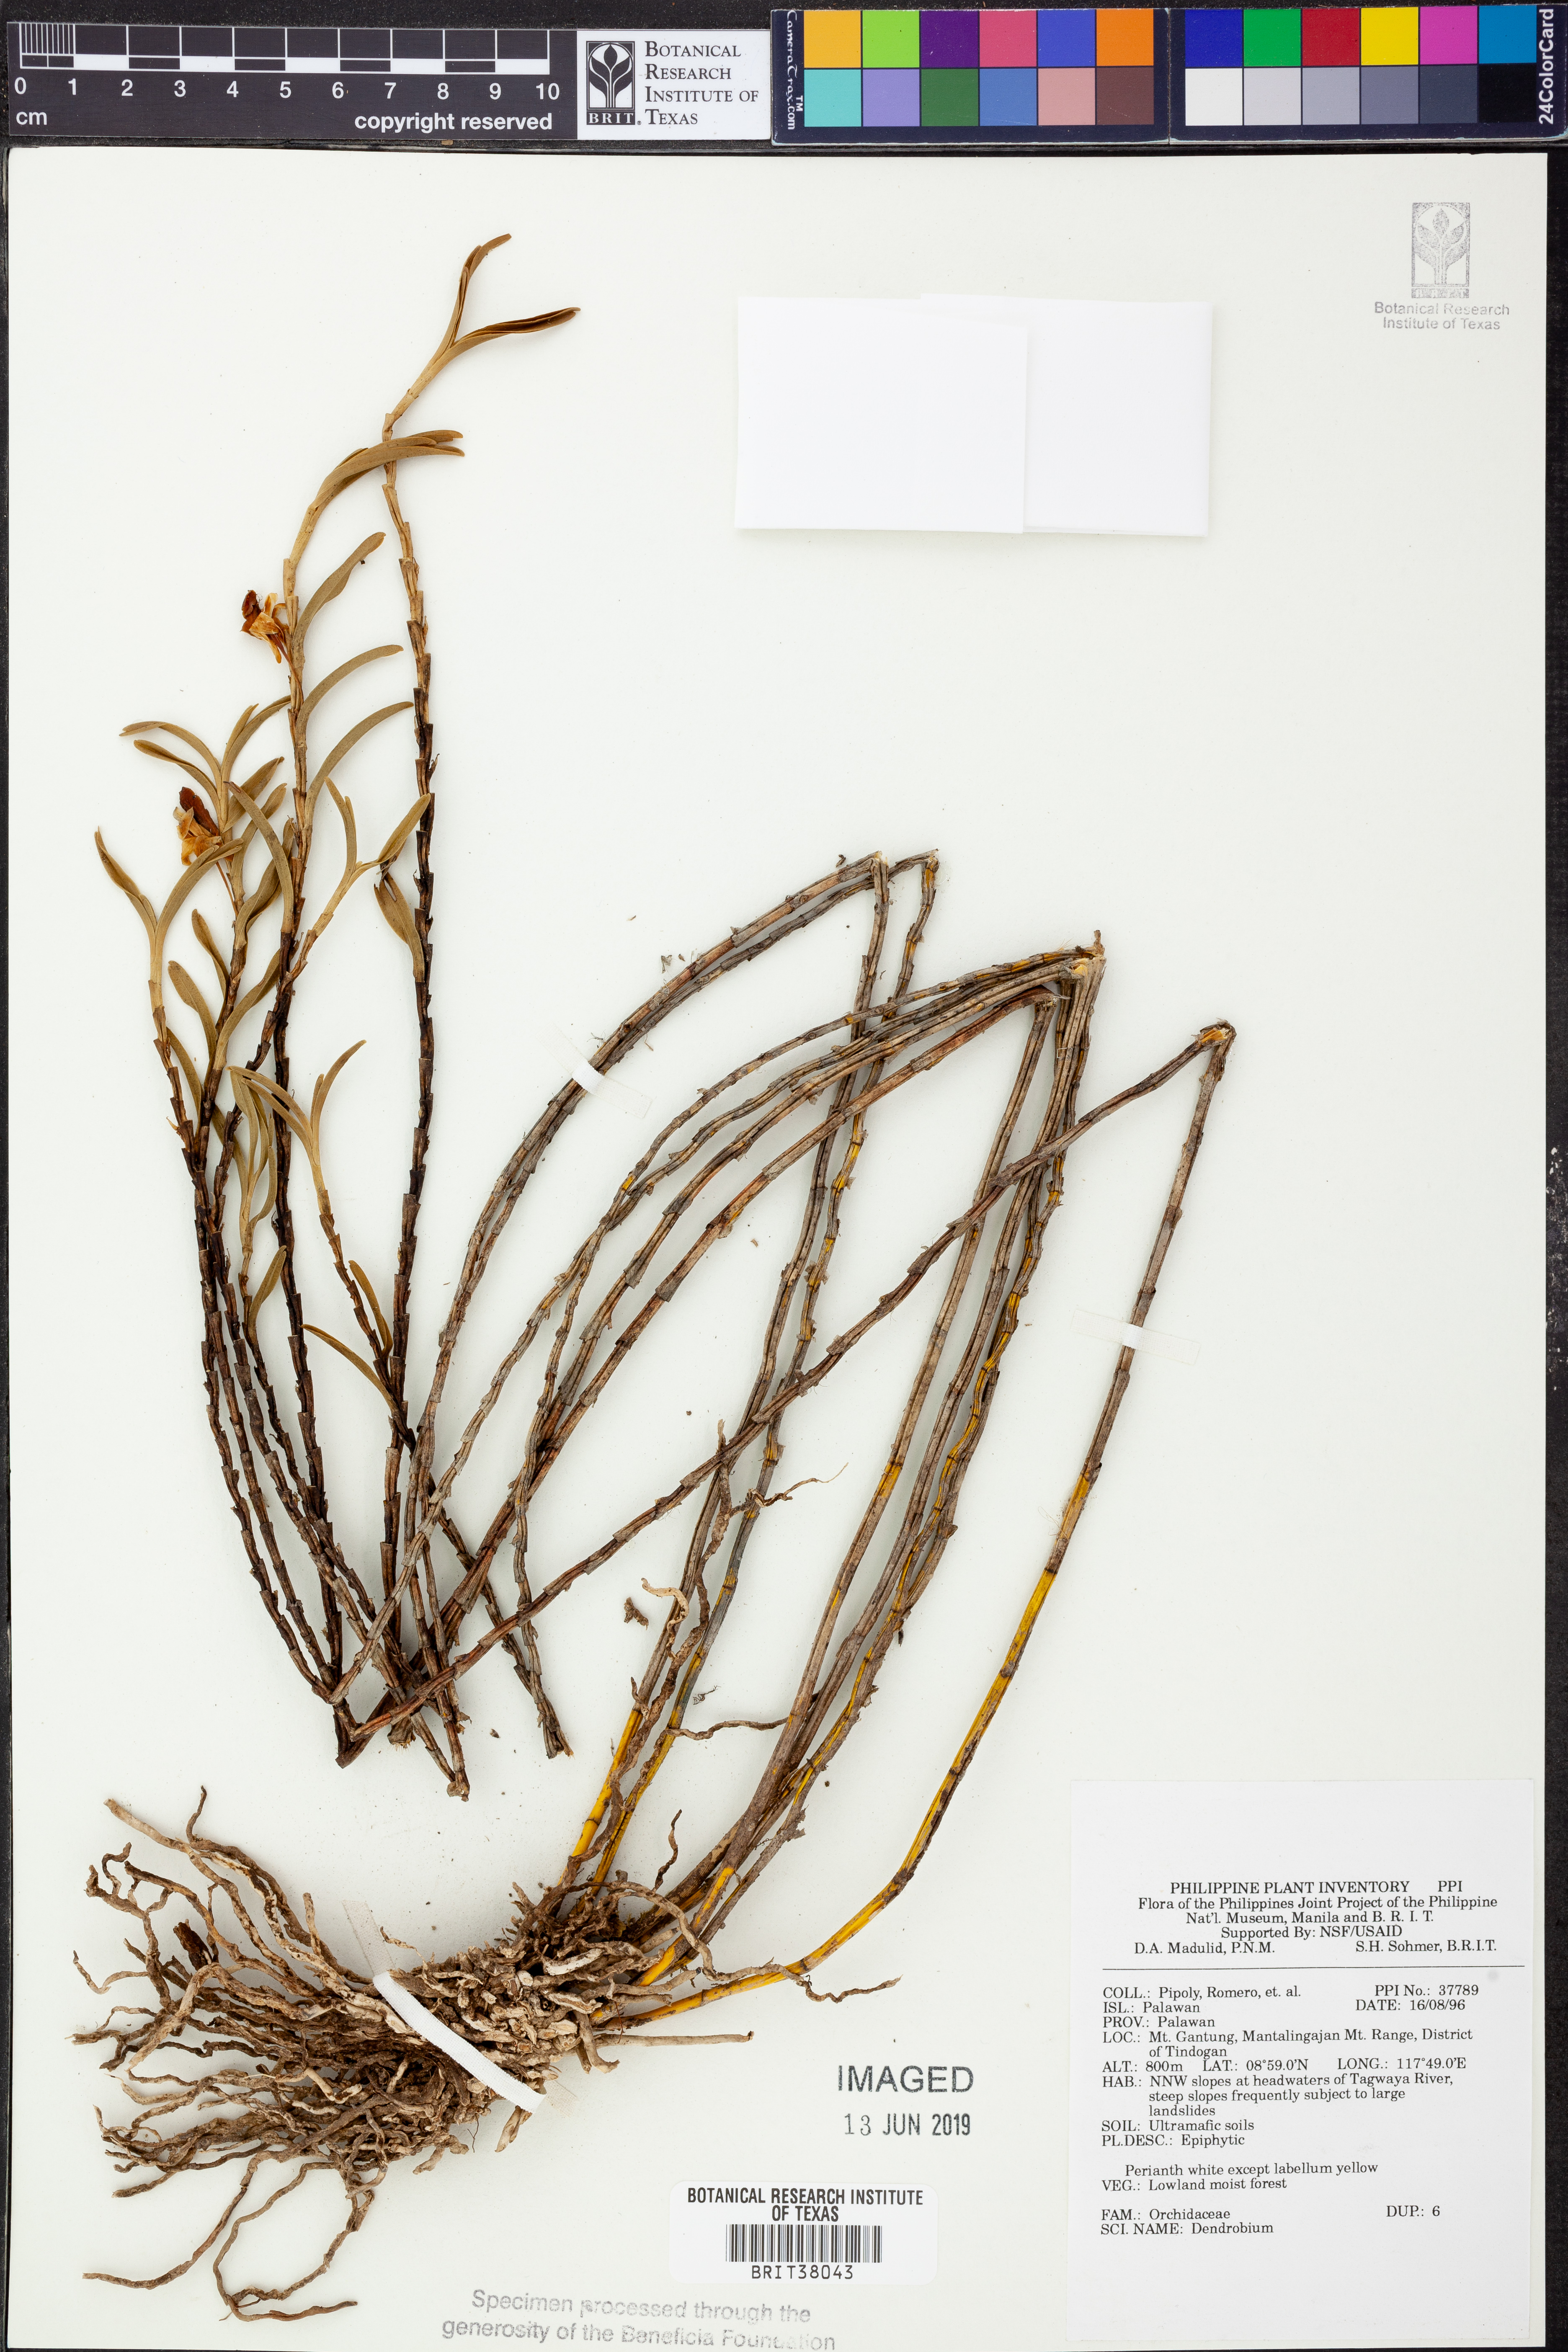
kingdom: Plantae
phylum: Tracheophyta
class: Liliopsida
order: Asparagales
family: Orchidaceae
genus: Dendrobium
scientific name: Dendrobium
